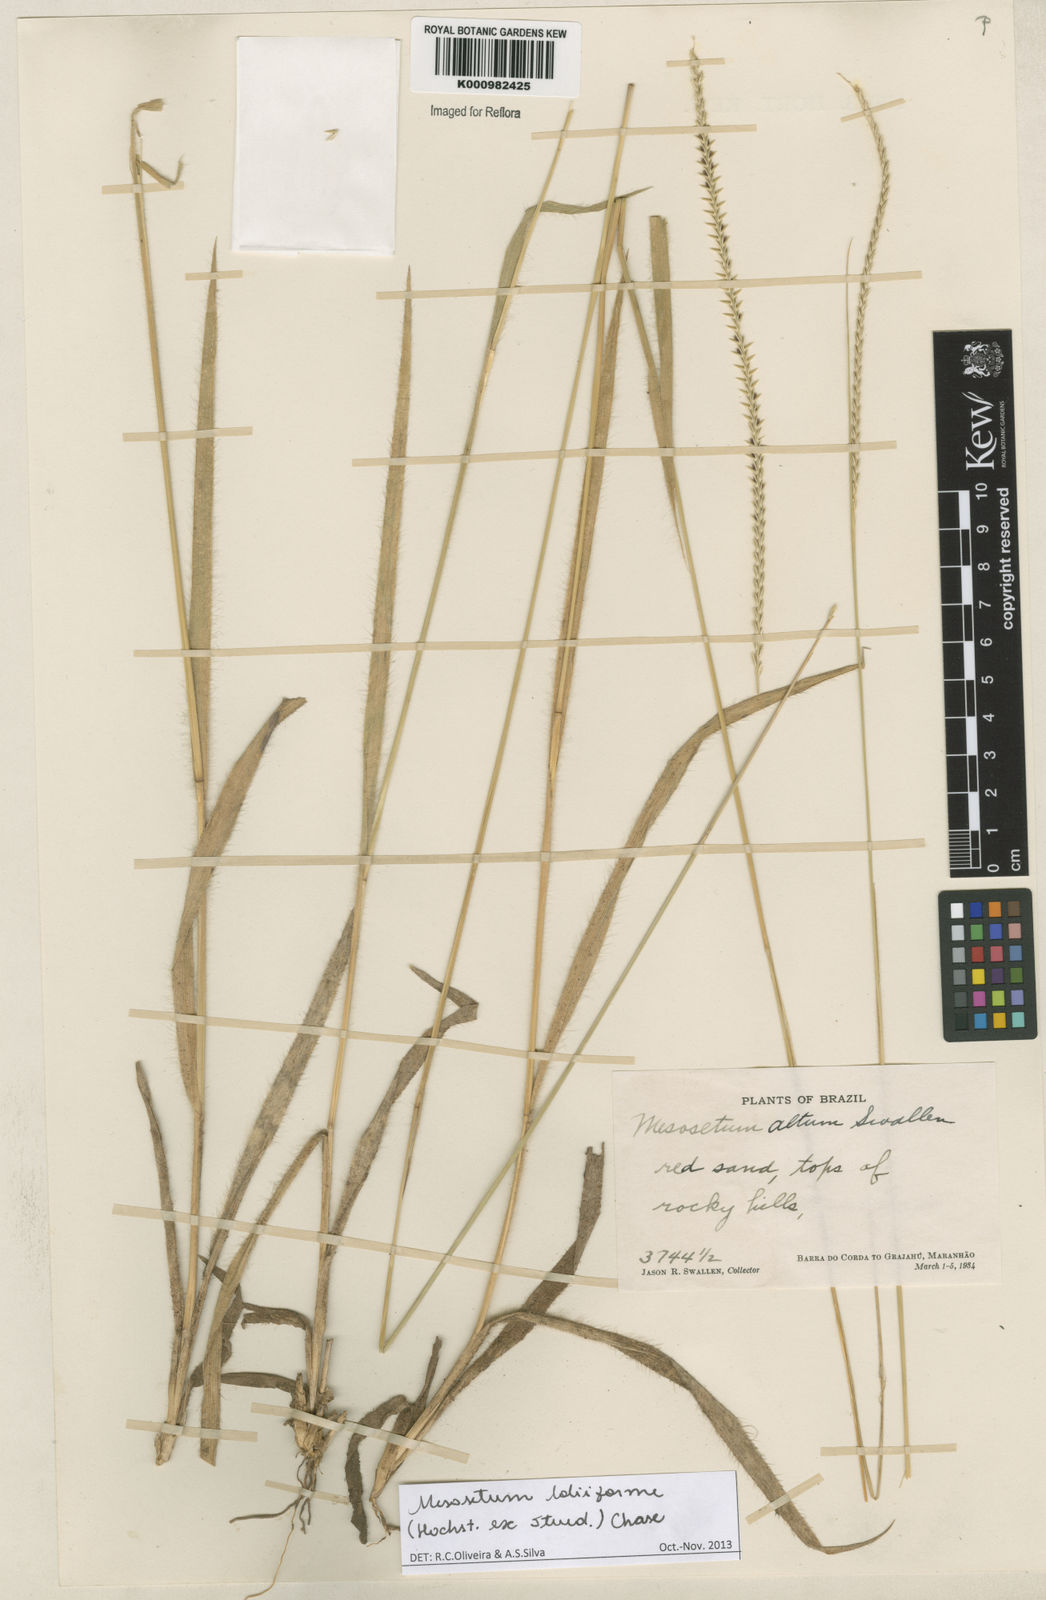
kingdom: Plantae
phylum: Tracheophyta
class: Liliopsida
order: Poales
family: Poaceae
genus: Mesosetum
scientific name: Mesosetum
